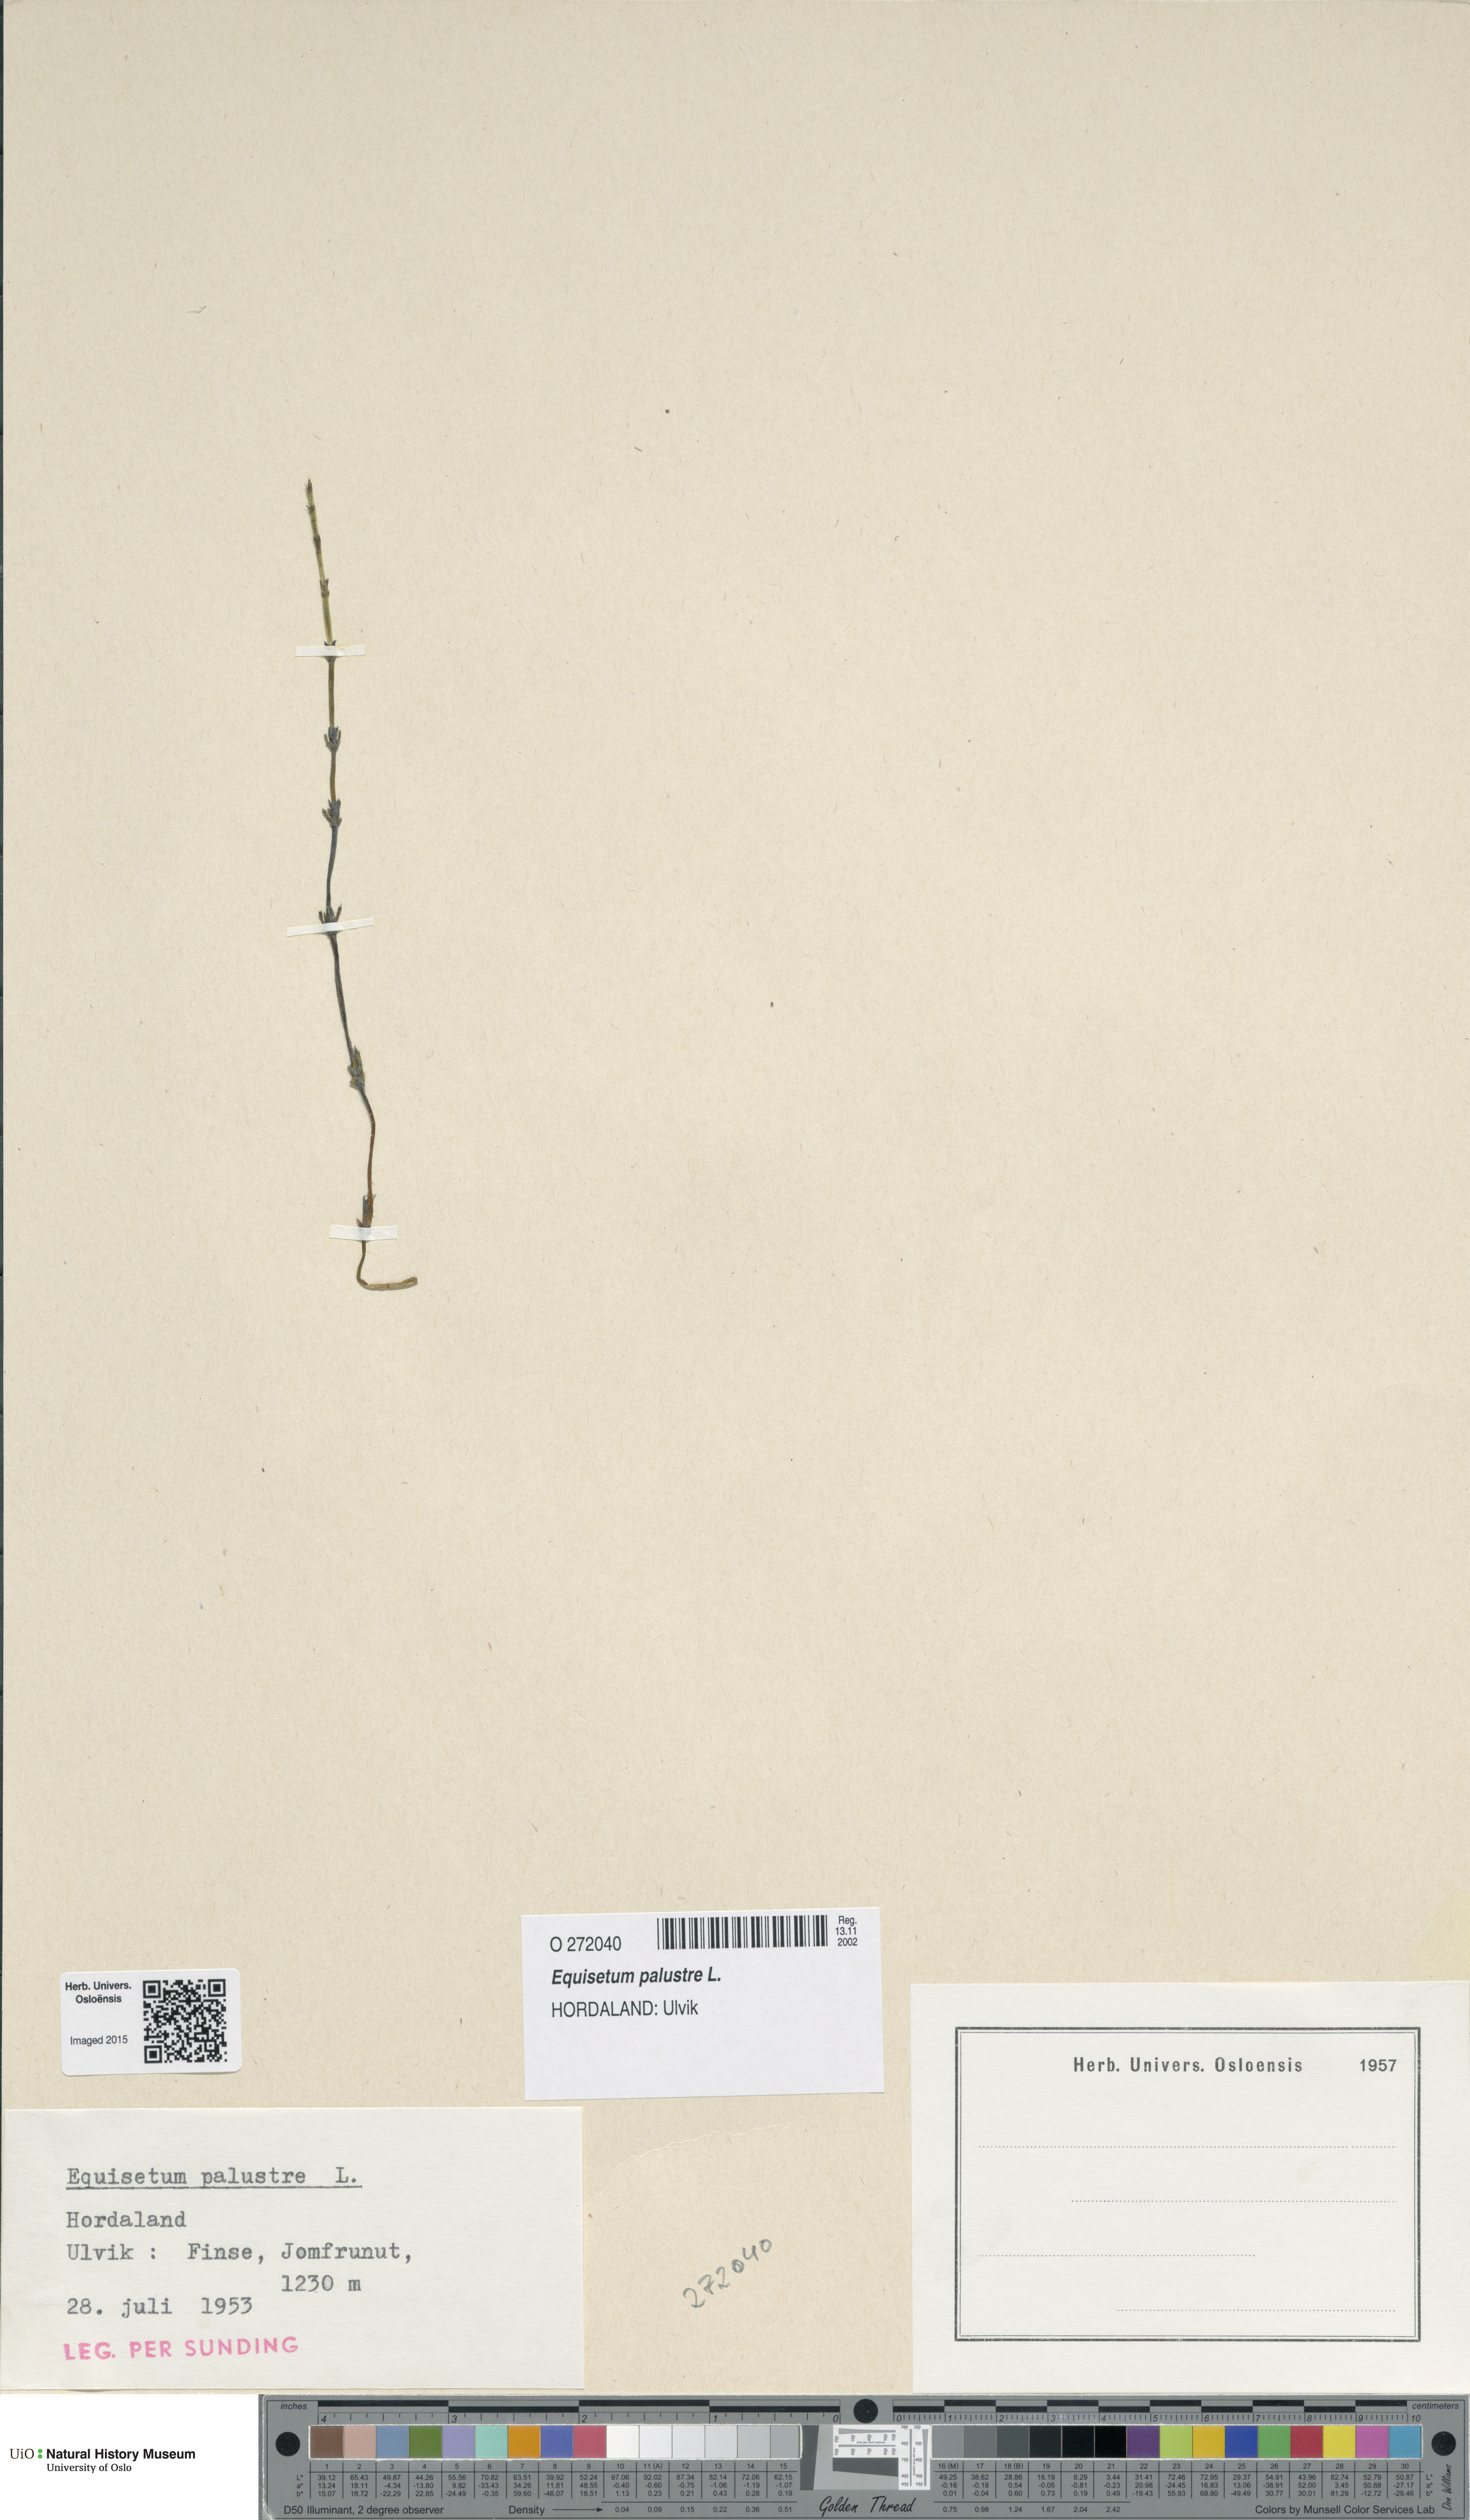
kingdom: Plantae
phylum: Tracheophyta
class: Polypodiopsida
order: Equisetales
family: Equisetaceae
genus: Equisetum
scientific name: Equisetum palustre
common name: Marsh horsetail
